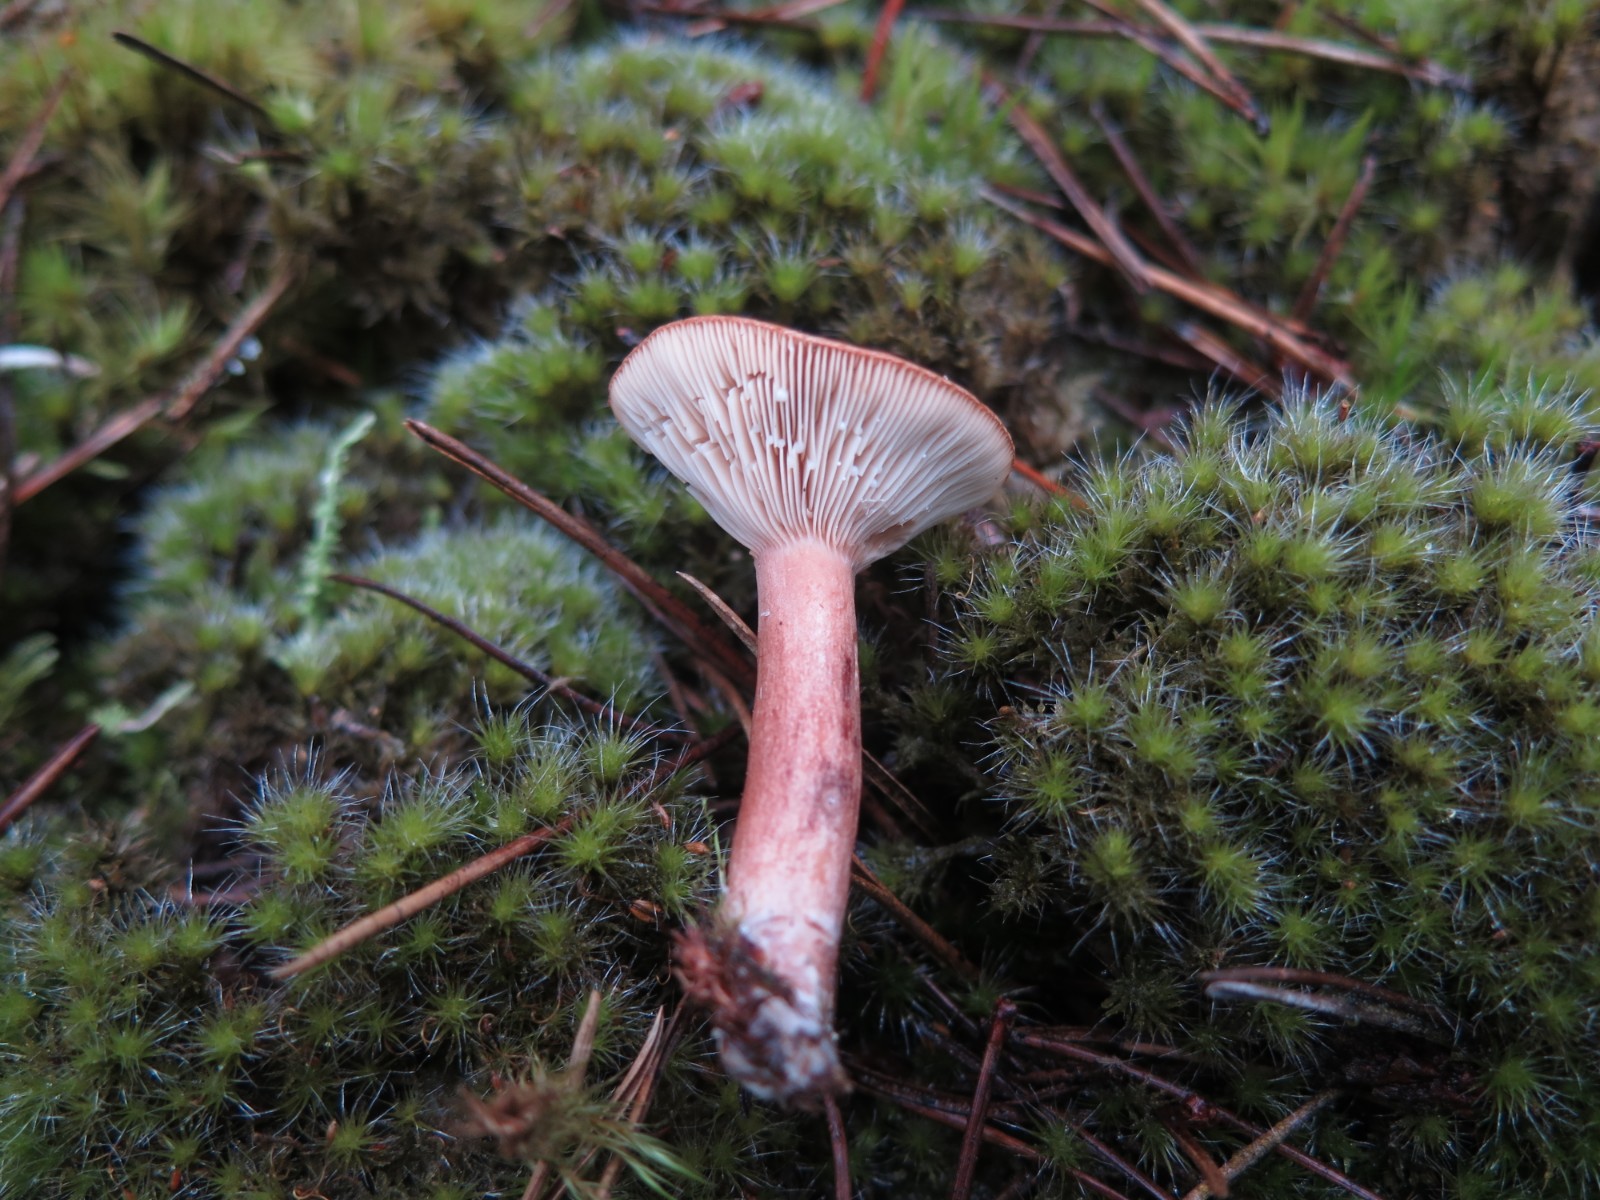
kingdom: Fungi
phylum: Basidiomycota
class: Agaricomycetes
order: Russulales
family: Russulaceae
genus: Lactarius
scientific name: Lactarius rufus
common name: rødbrun mælkehat
